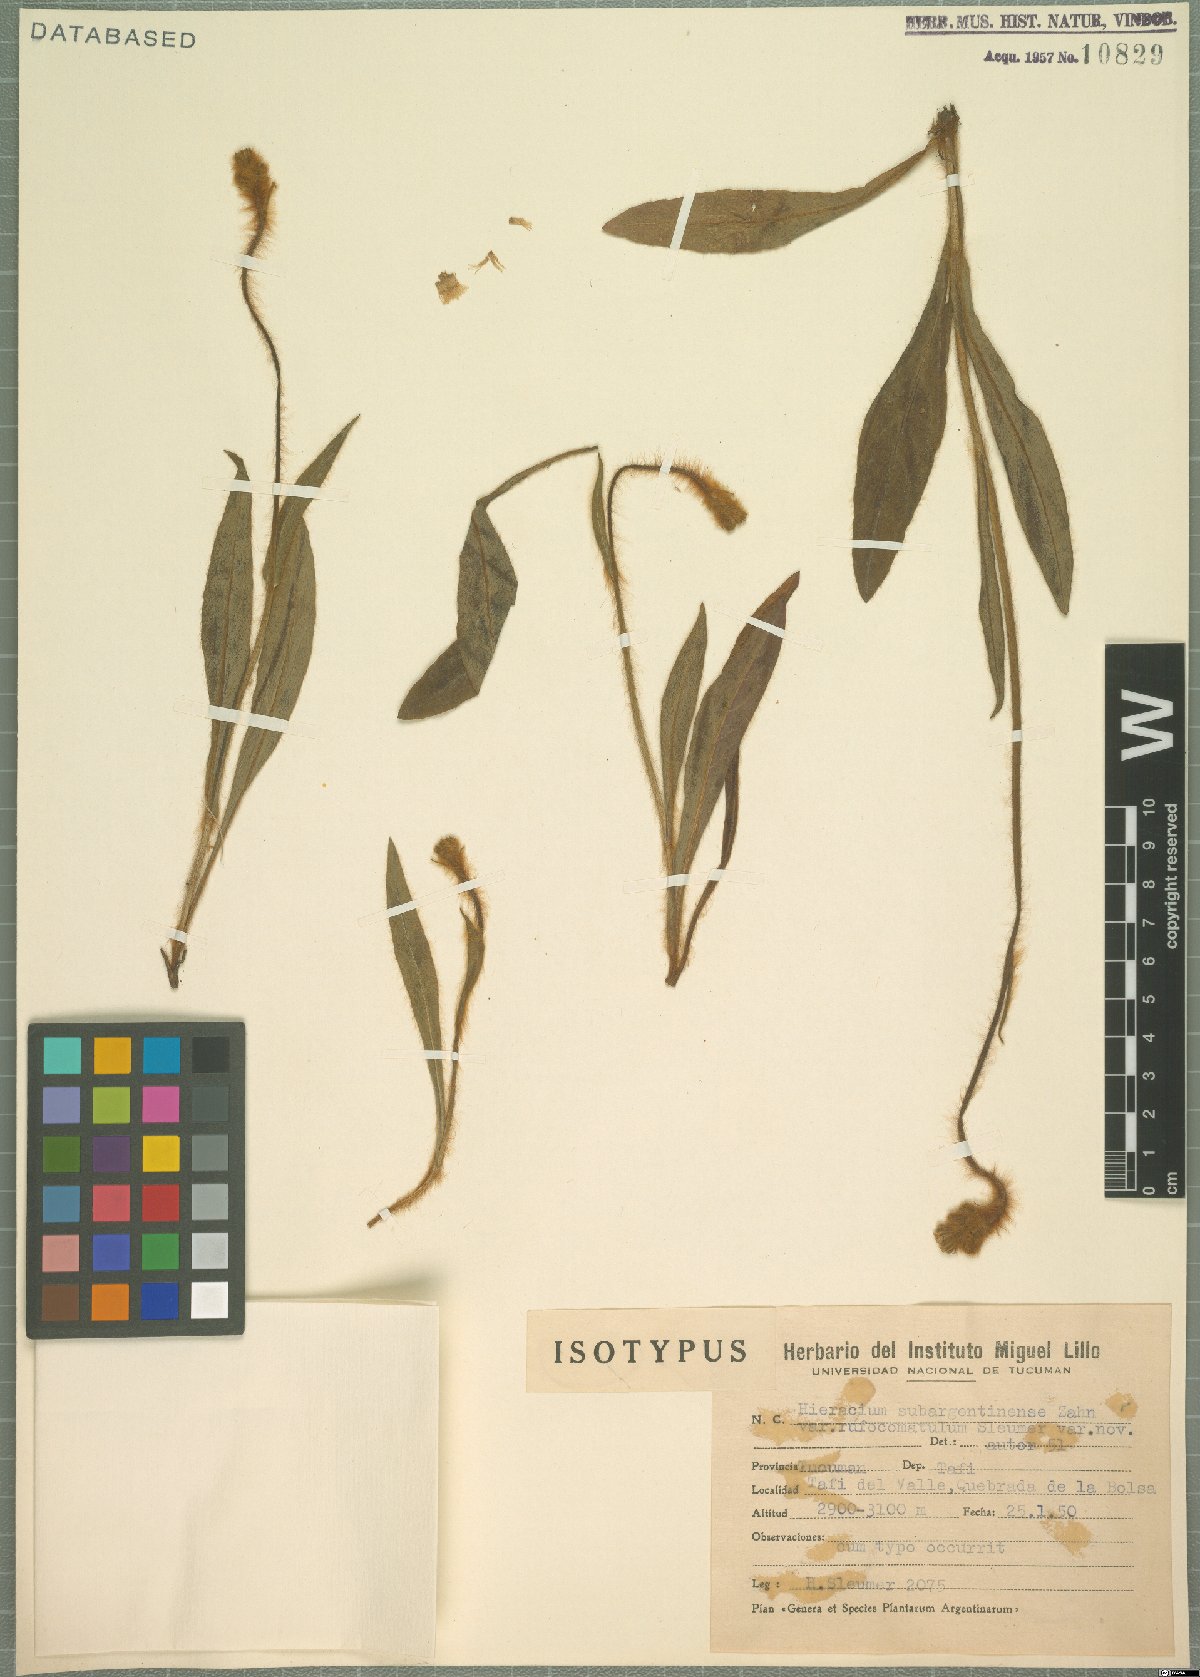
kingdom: Plantae
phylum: Tracheophyta
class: Magnoliopsida
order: Asterales
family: Asteraceae
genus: Hieracium
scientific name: Hieracium argentinense
